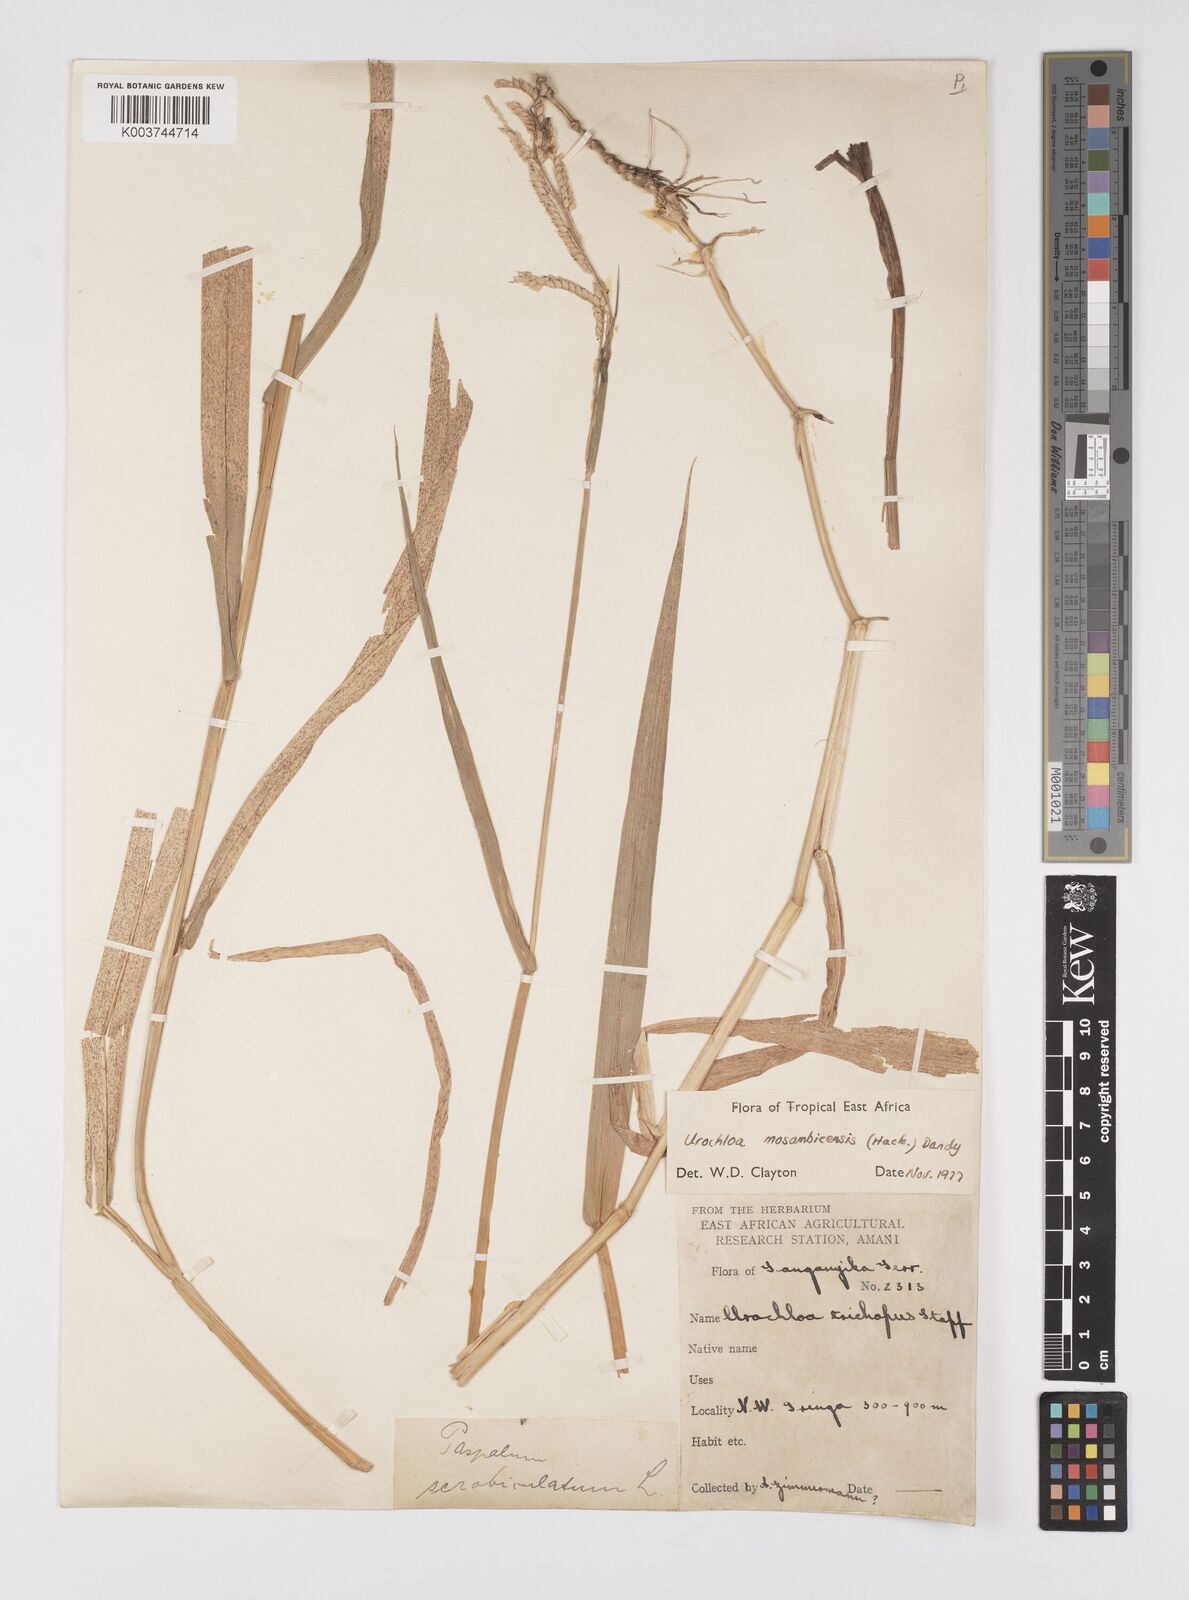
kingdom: Plantae
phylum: Tracheophyta
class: Liliopsida
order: Poales
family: Poaceae
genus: Urochloa
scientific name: Urochloa trichopus
